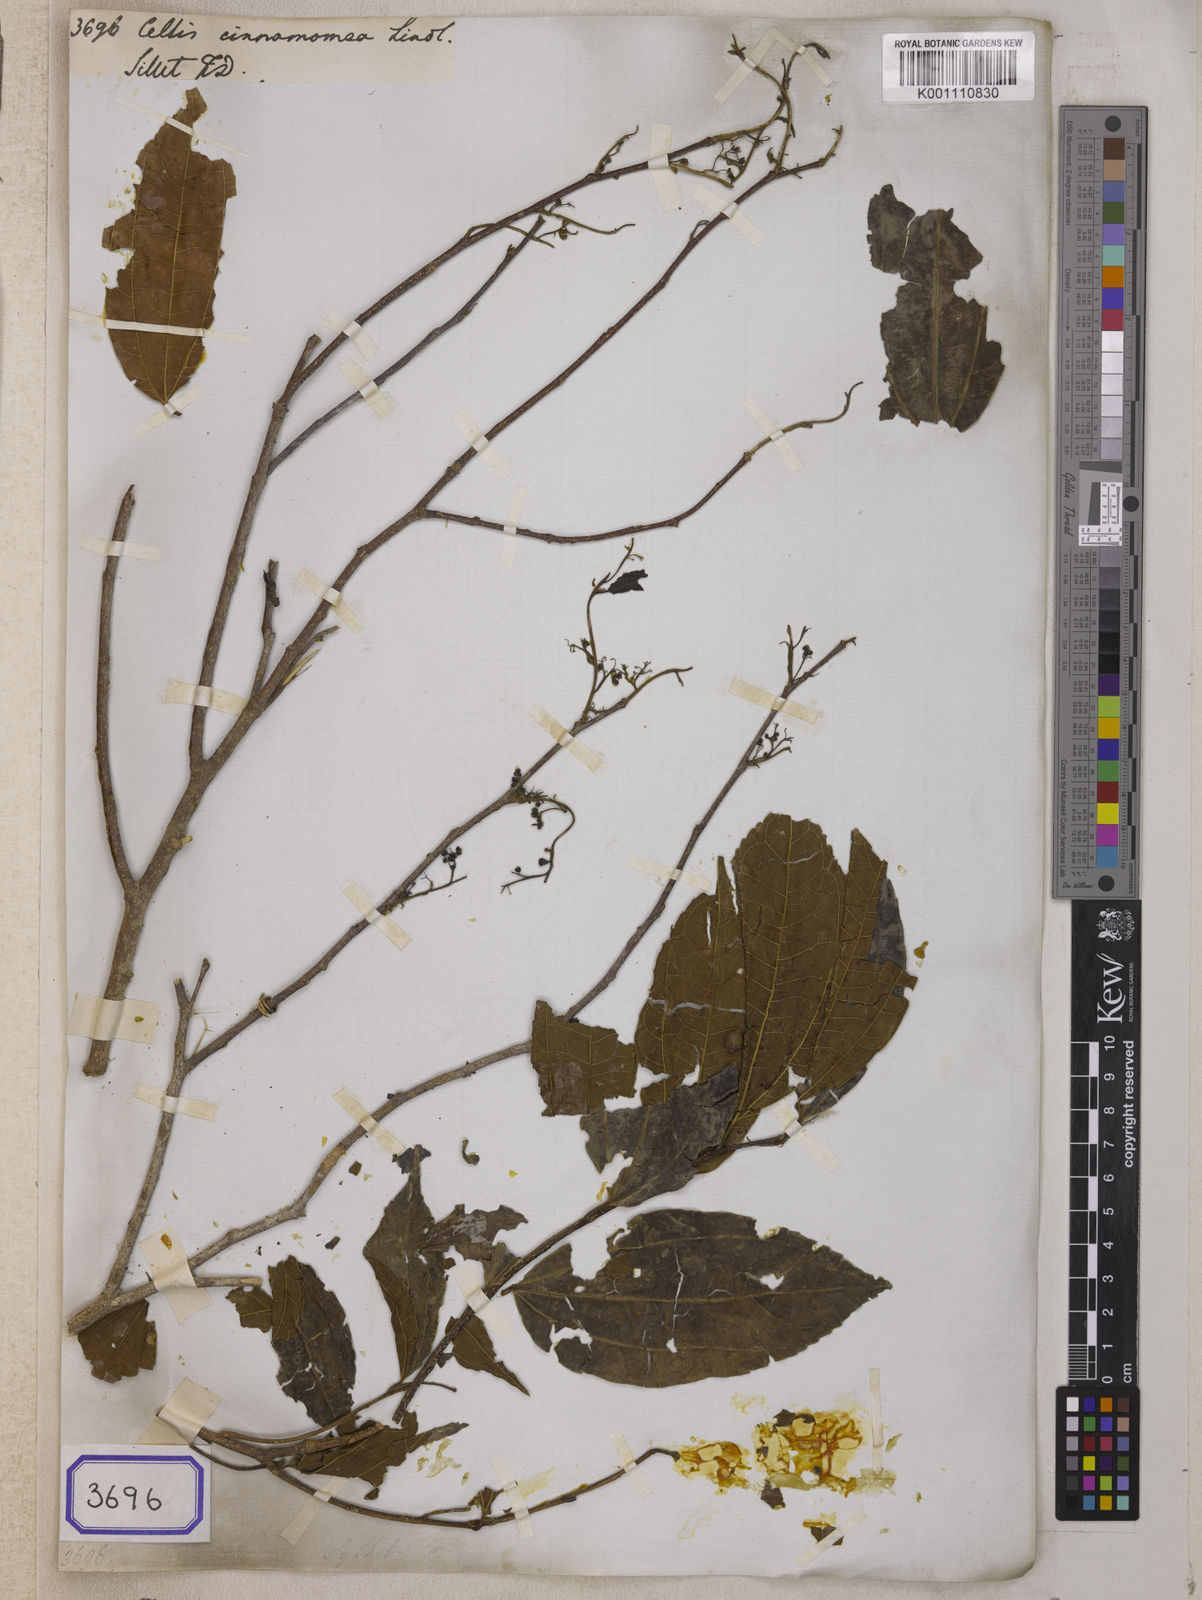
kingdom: Plantae
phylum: Tracheophyta
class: Magnoliopsida
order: Rosales
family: Cannabaceae
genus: Celtis
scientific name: Celtis
